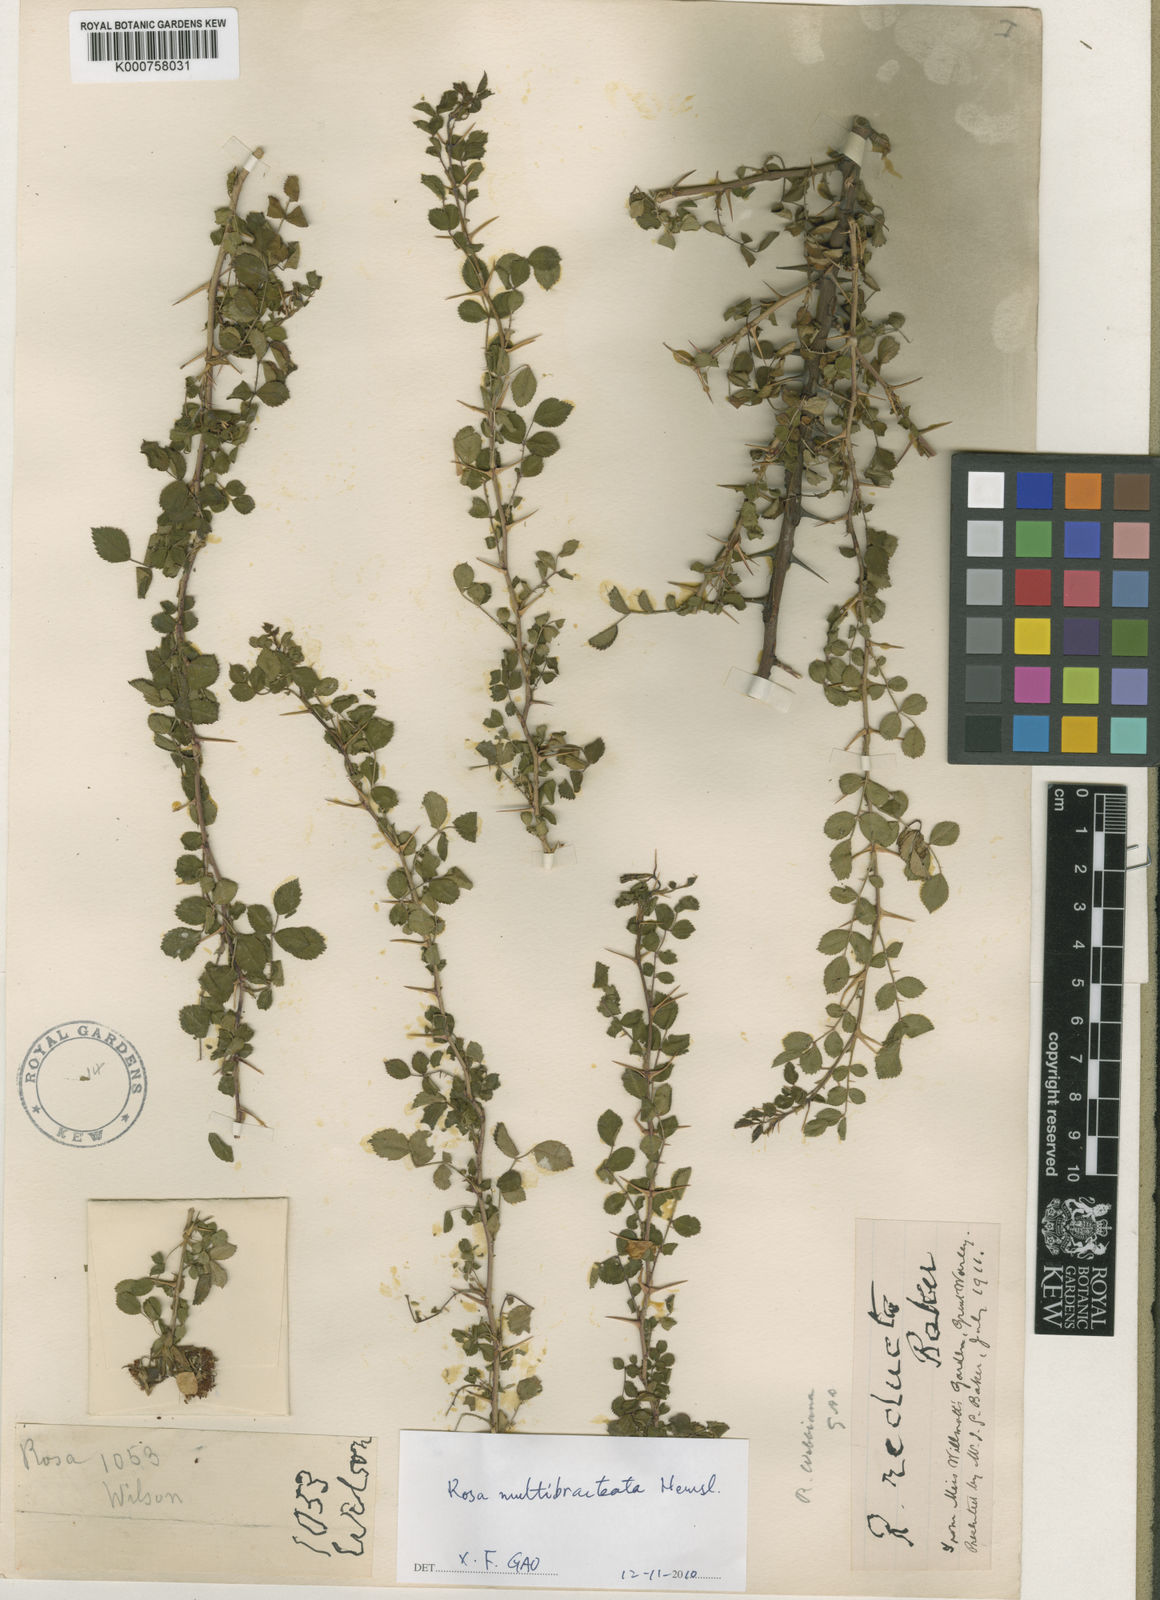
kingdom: Plantae
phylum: Tracheophyta
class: Magnoliopsida
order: Rosales
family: Rosaceae
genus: Rosa
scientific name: Rosa multibracteata
